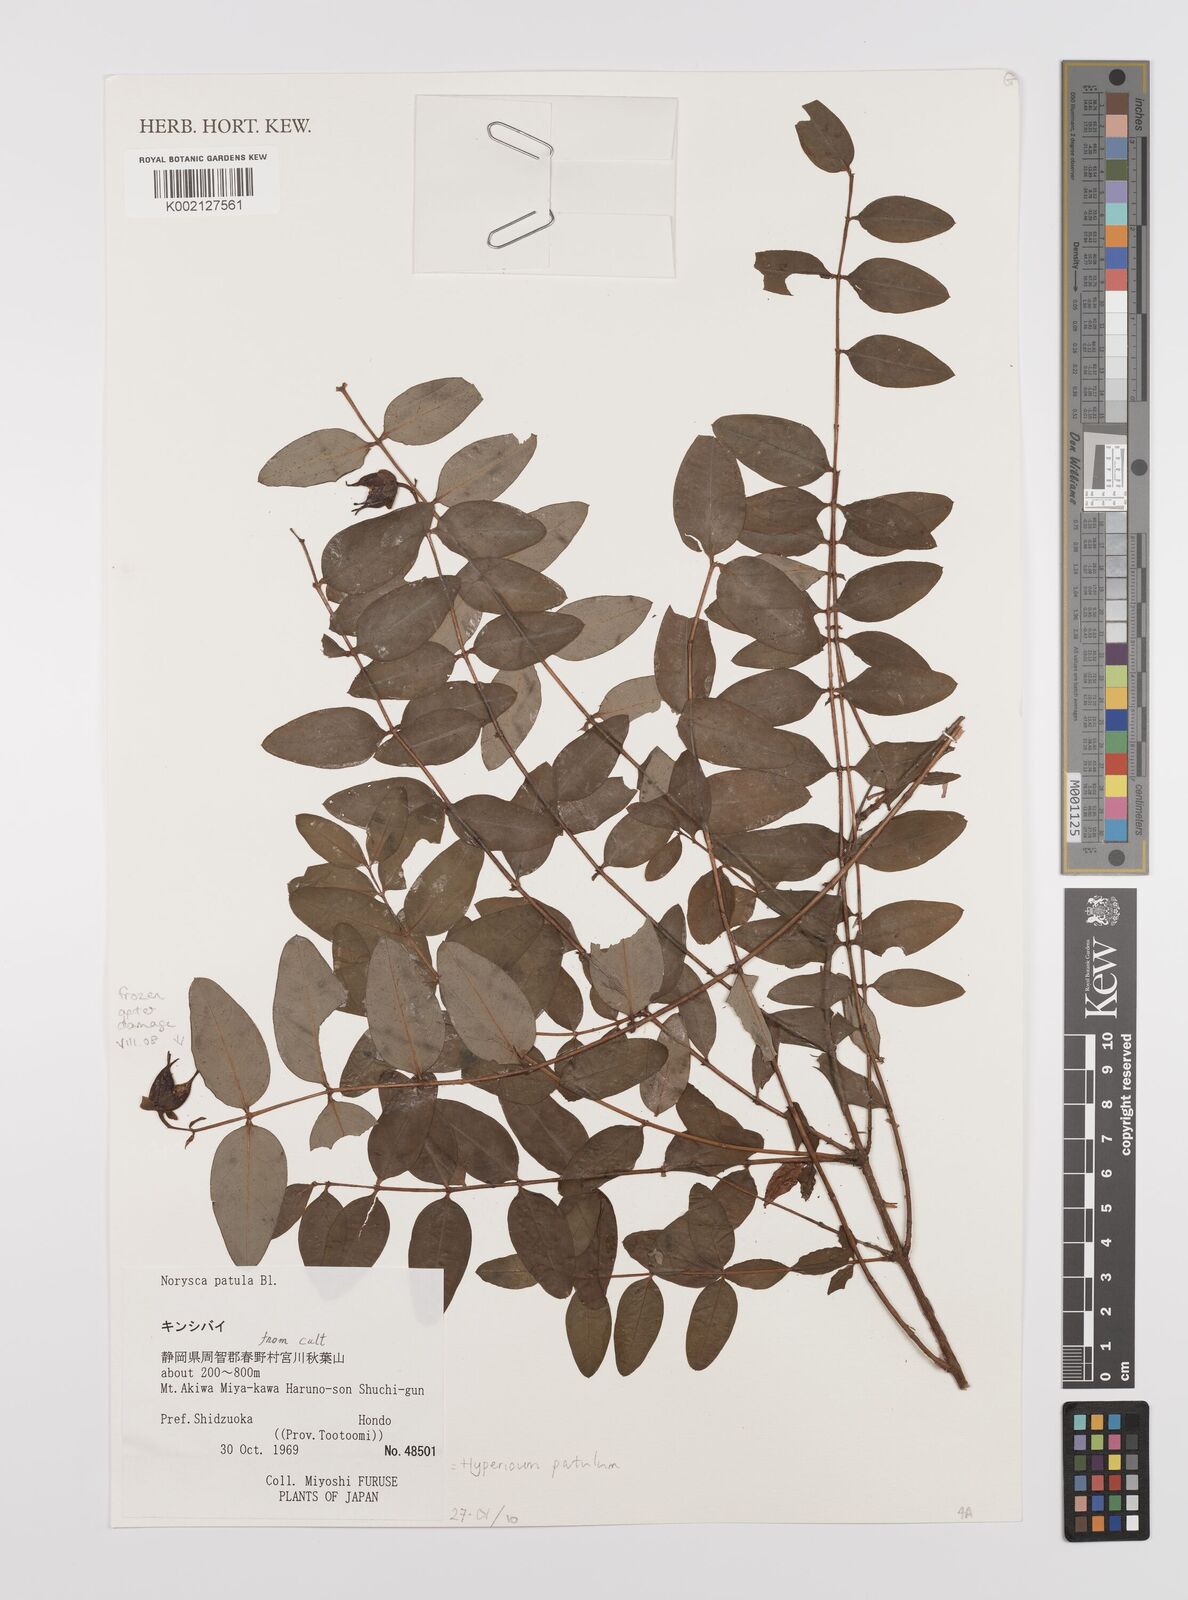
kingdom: Plantae
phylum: Tracheophyta
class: Magnoliopsida
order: Malpighiales
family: Hypericaceae
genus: Hypericum
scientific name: Hypericum patulum
